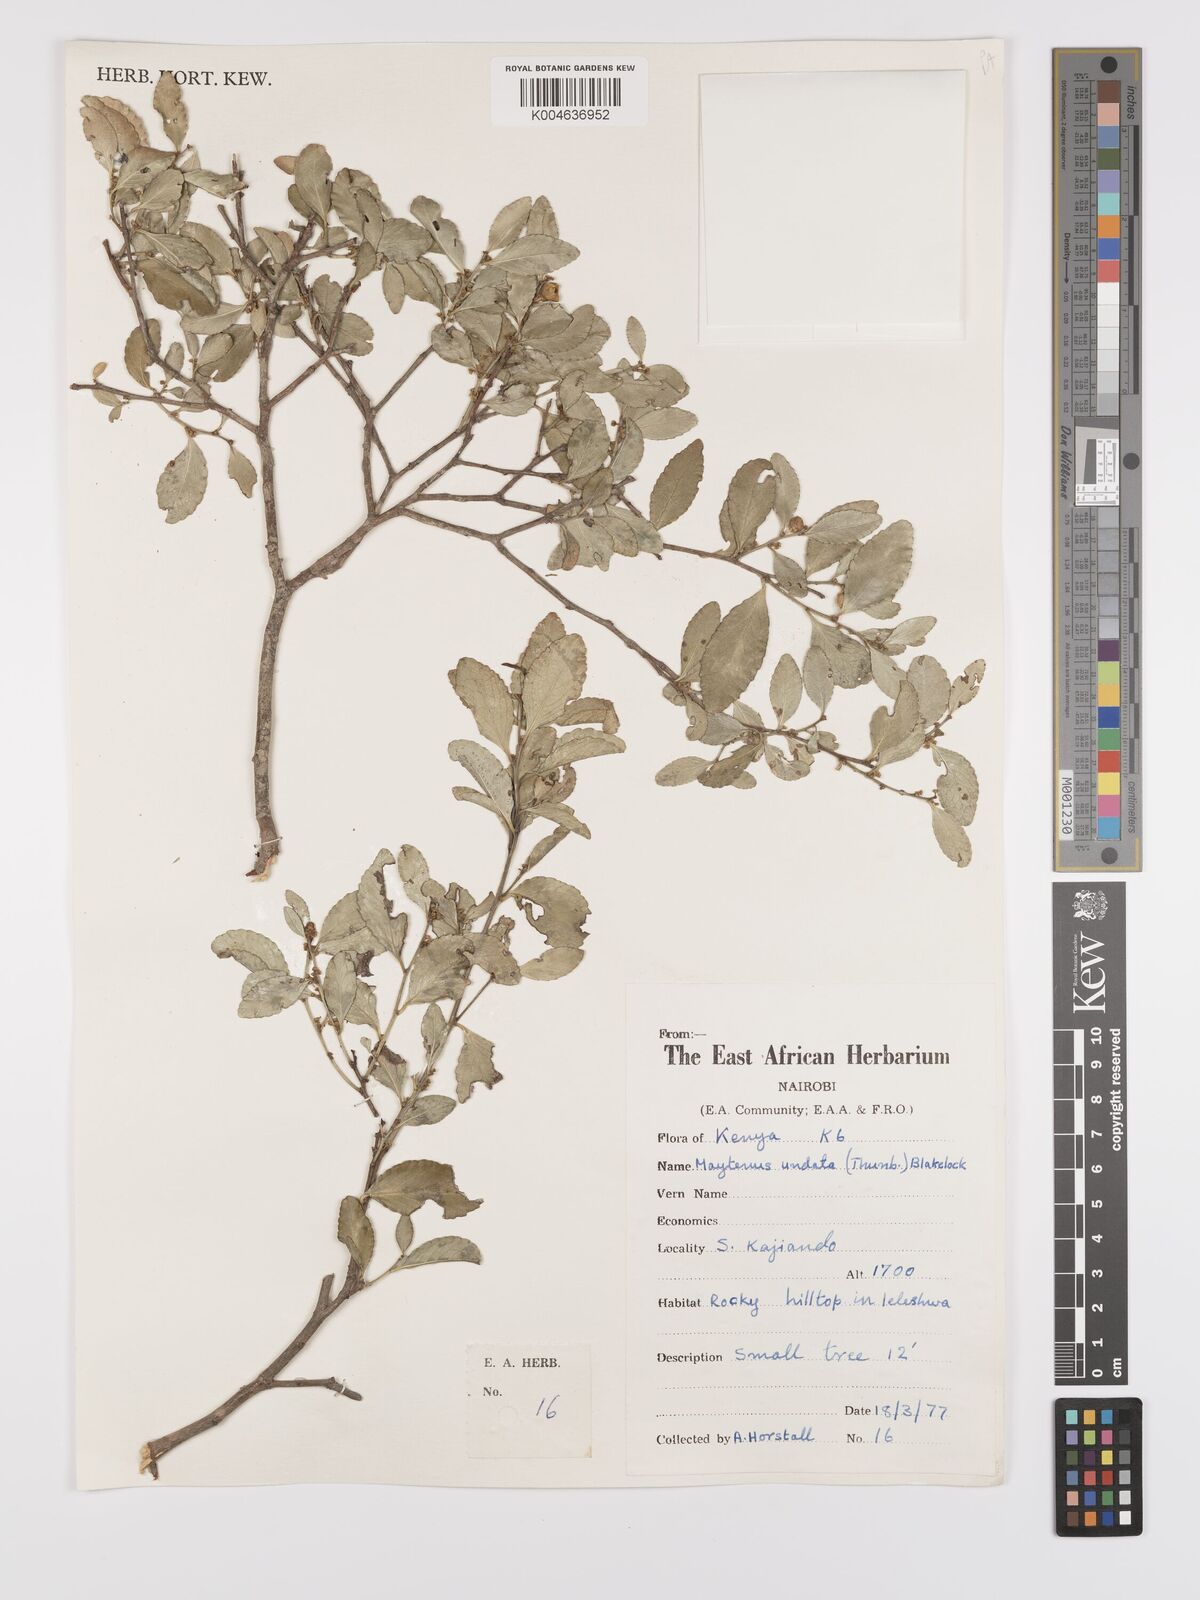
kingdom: Plantae
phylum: Tracheophyta
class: Magnoliopsida
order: Celastrales
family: Celastraceae
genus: Gymnosporia
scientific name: Gymnosporia undata
